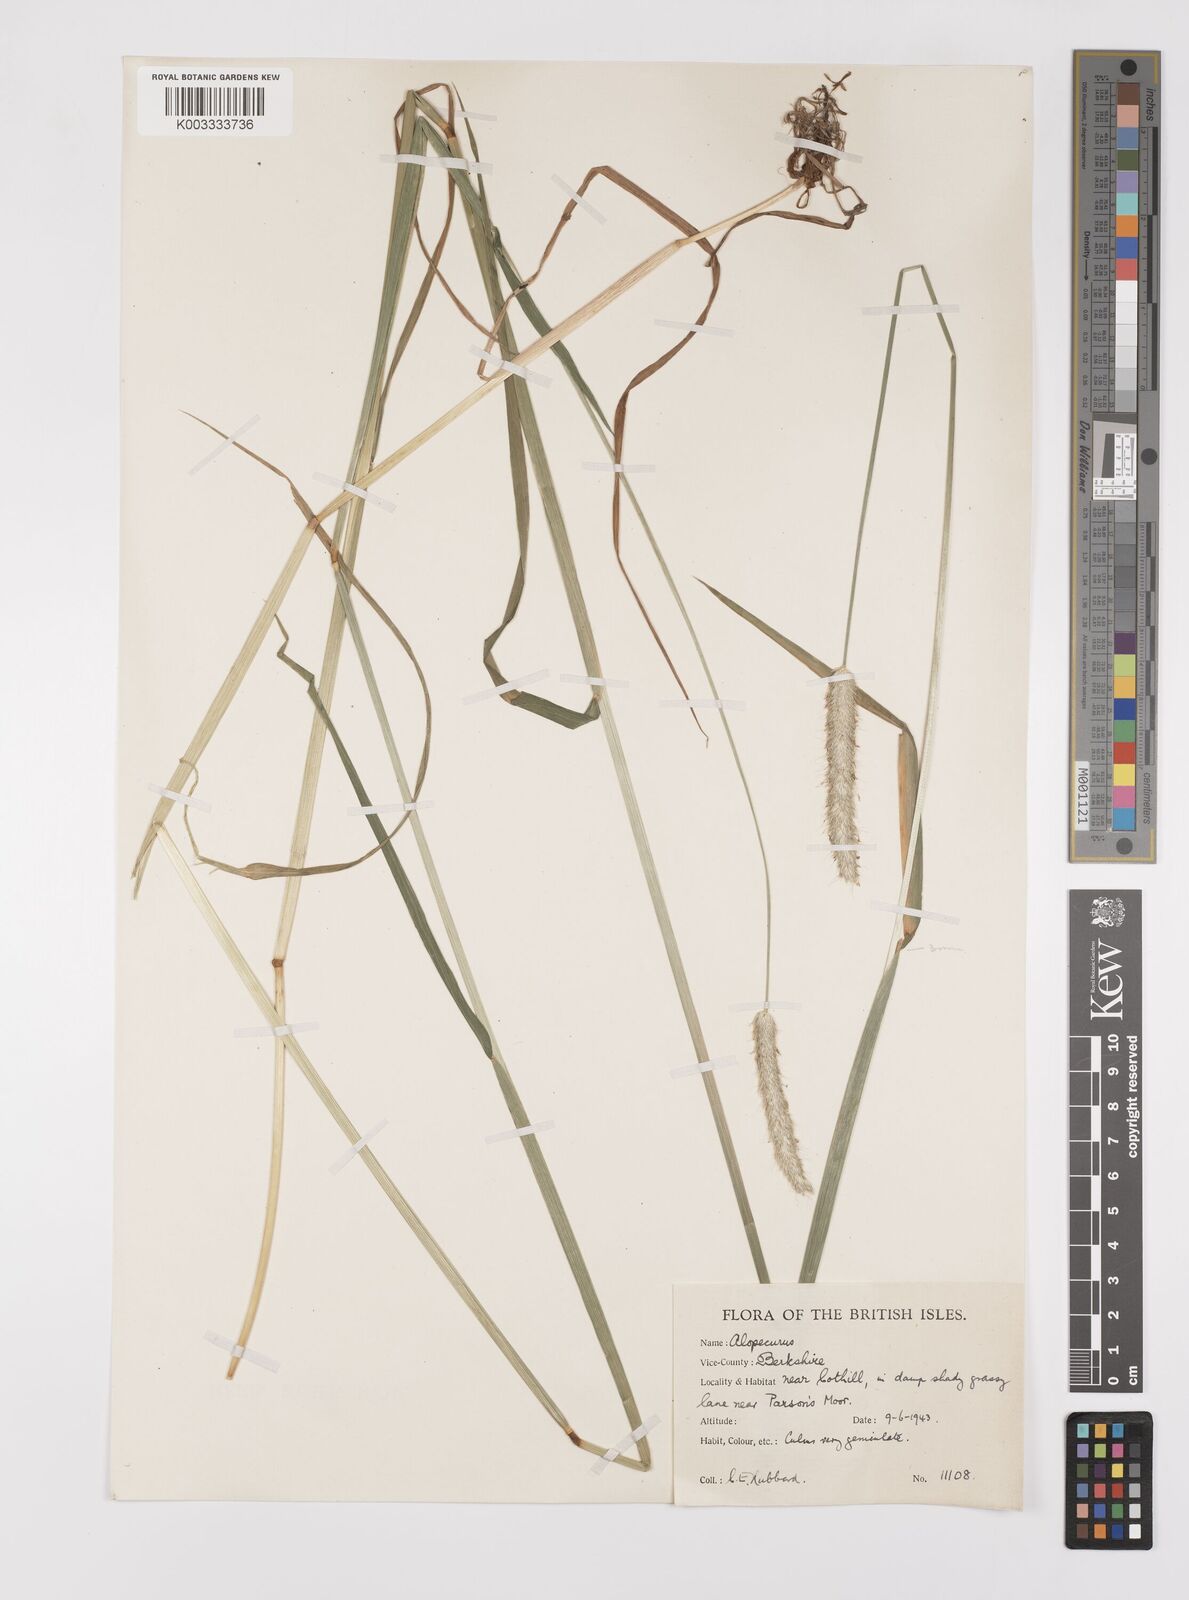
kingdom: Plantae
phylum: Tracheophyta
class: Liliopsida
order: Poales
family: Poaceae
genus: Alopecurus
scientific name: Alopecurus pratensis
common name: Meadow foxtail
